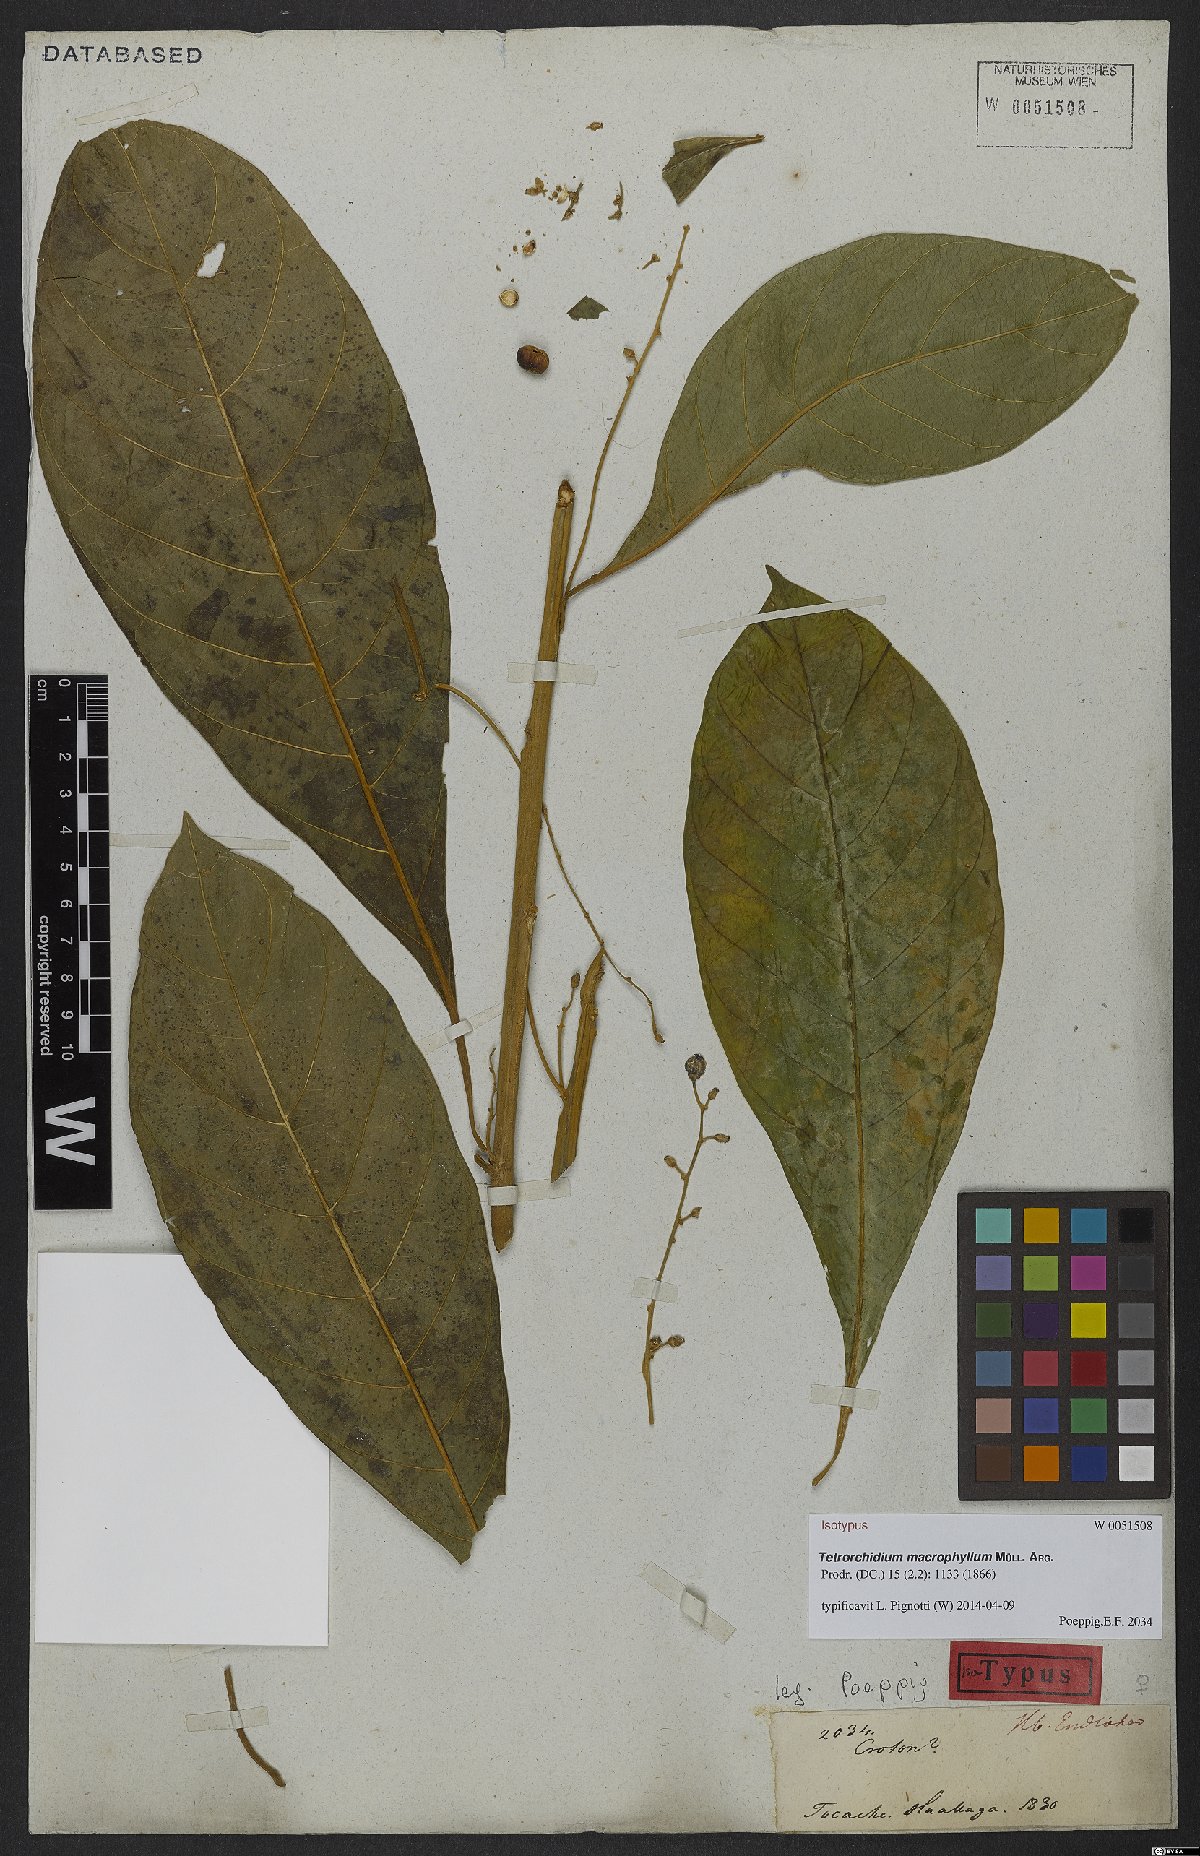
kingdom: Plantae
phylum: Tracheophyta
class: Magnoliopsida
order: Malpighiales
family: Euphorbiaceae
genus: Tetrorchidium
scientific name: Tetrorchidium macrophyllum
